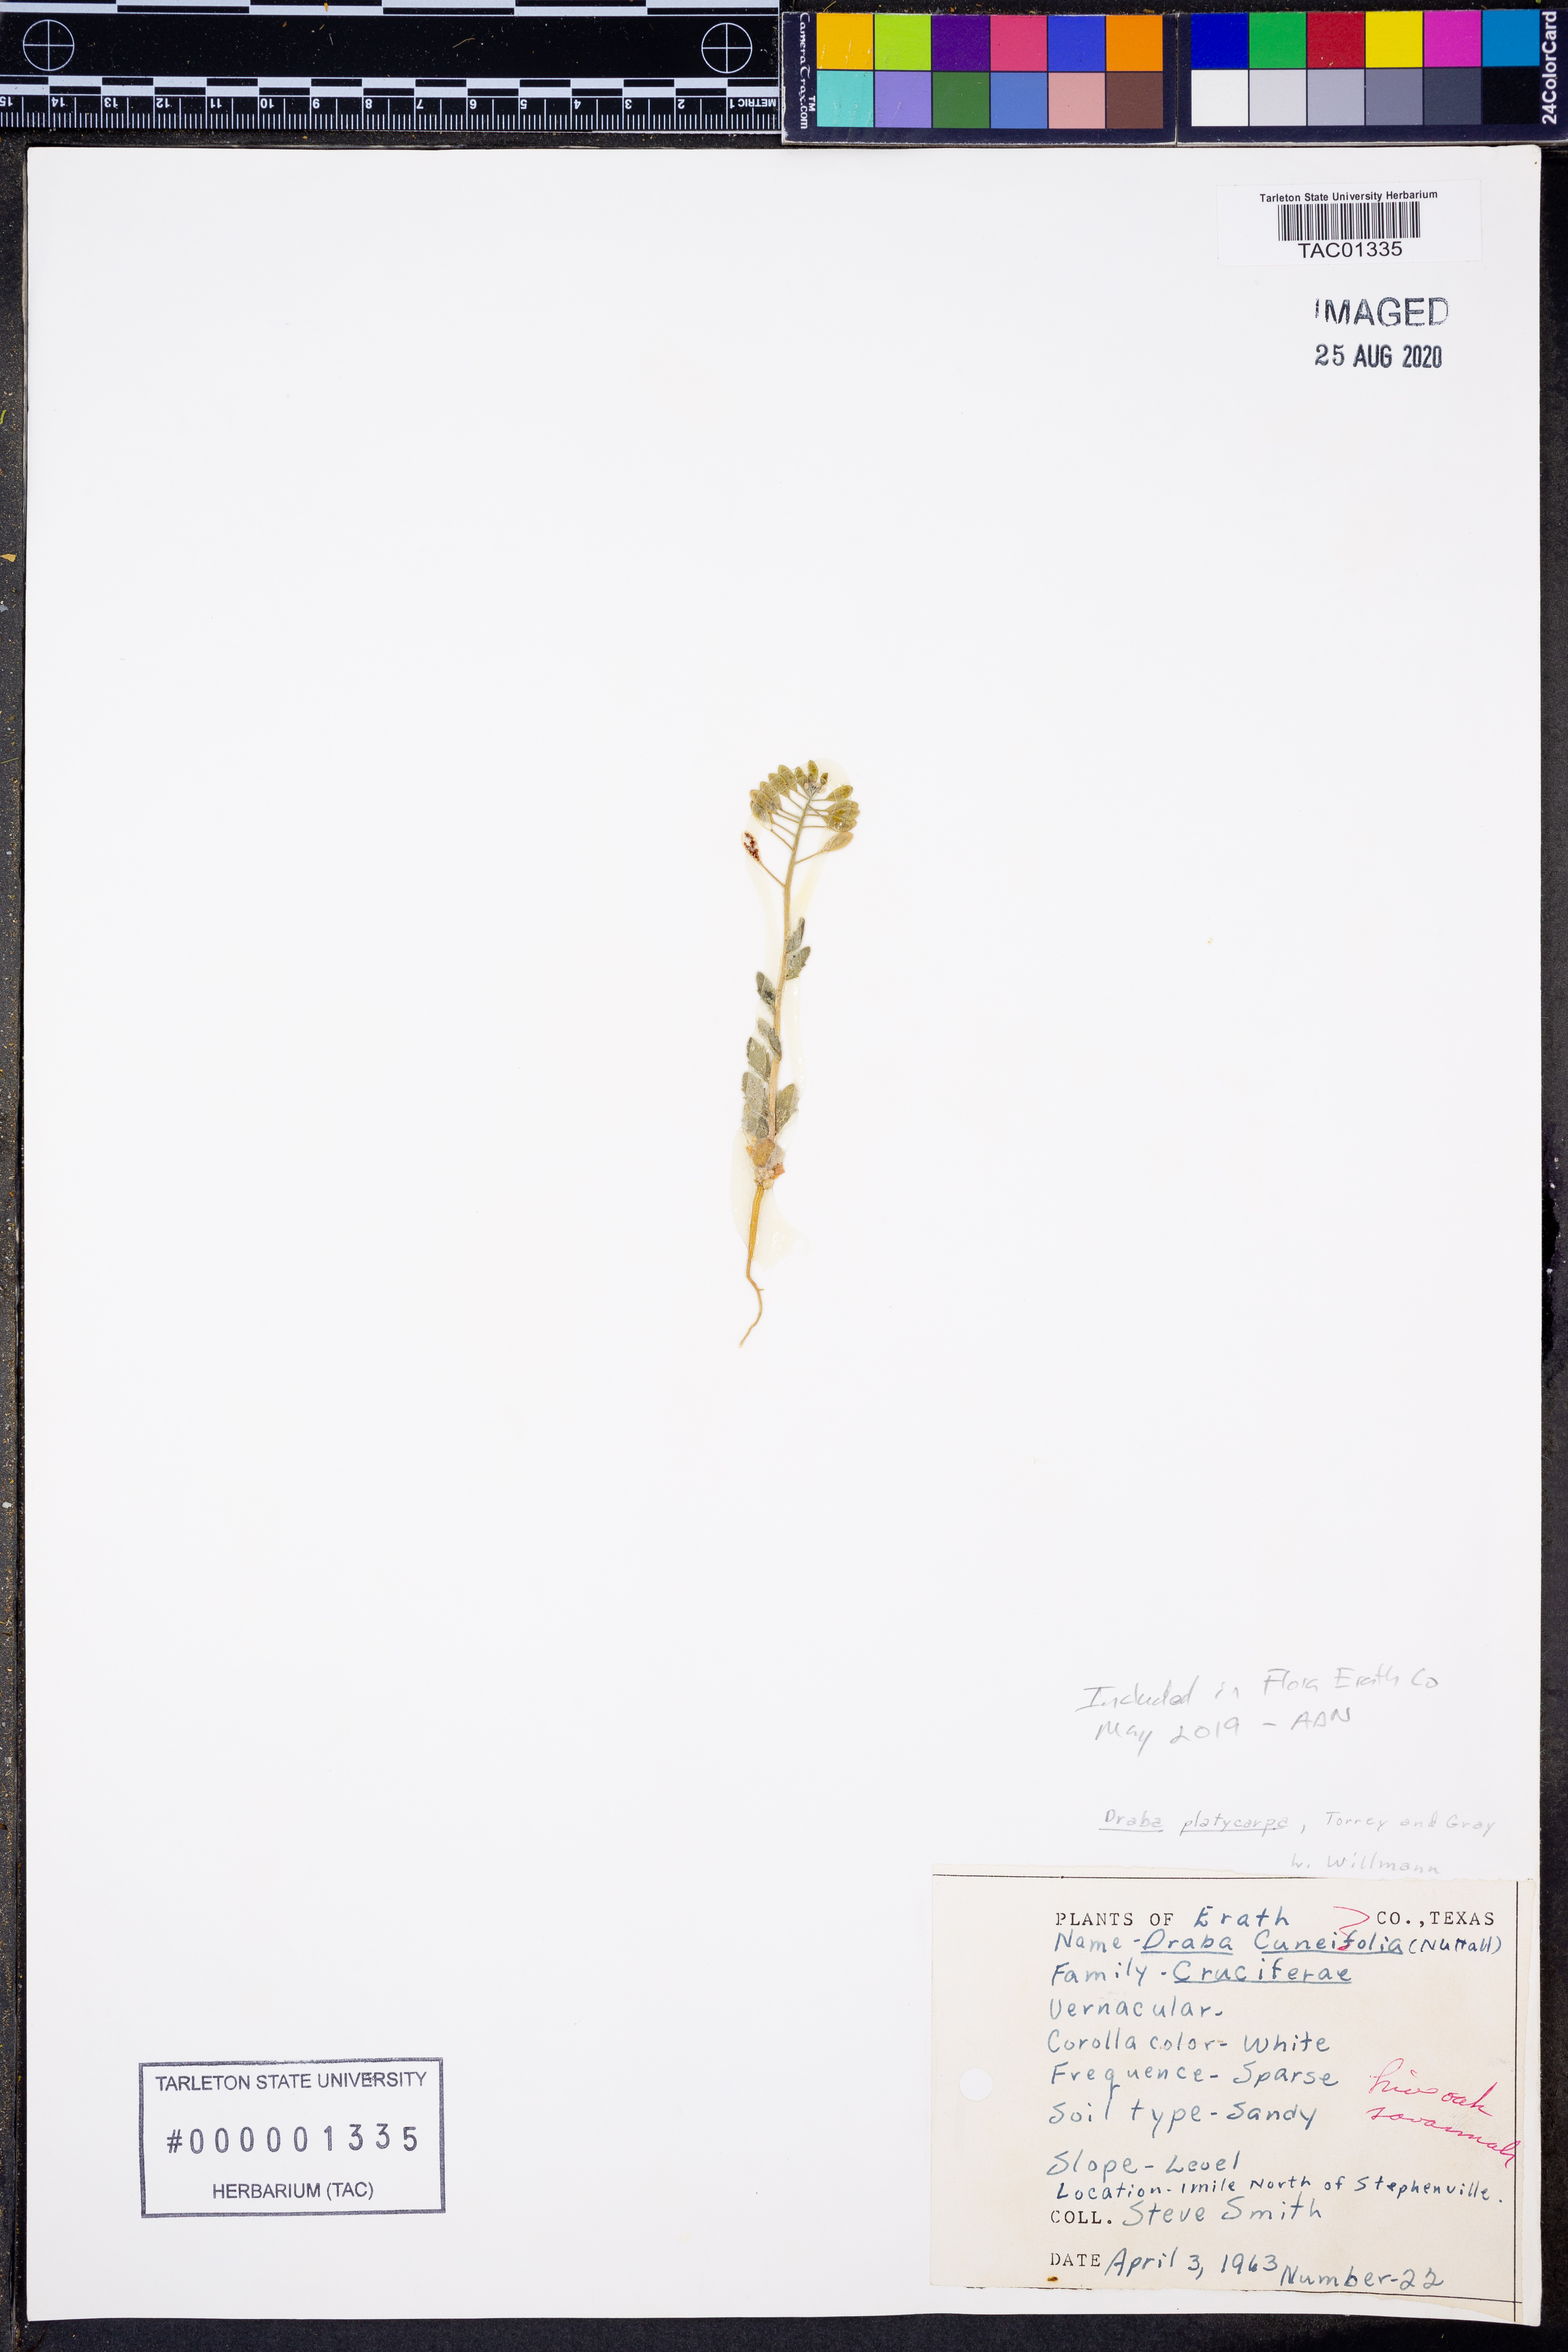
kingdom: Plantae
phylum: Tracheophyta
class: Magnoliopsida
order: Brassicales
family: Brassicaceae
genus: Tomostima
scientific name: Tomostima platycarpa
